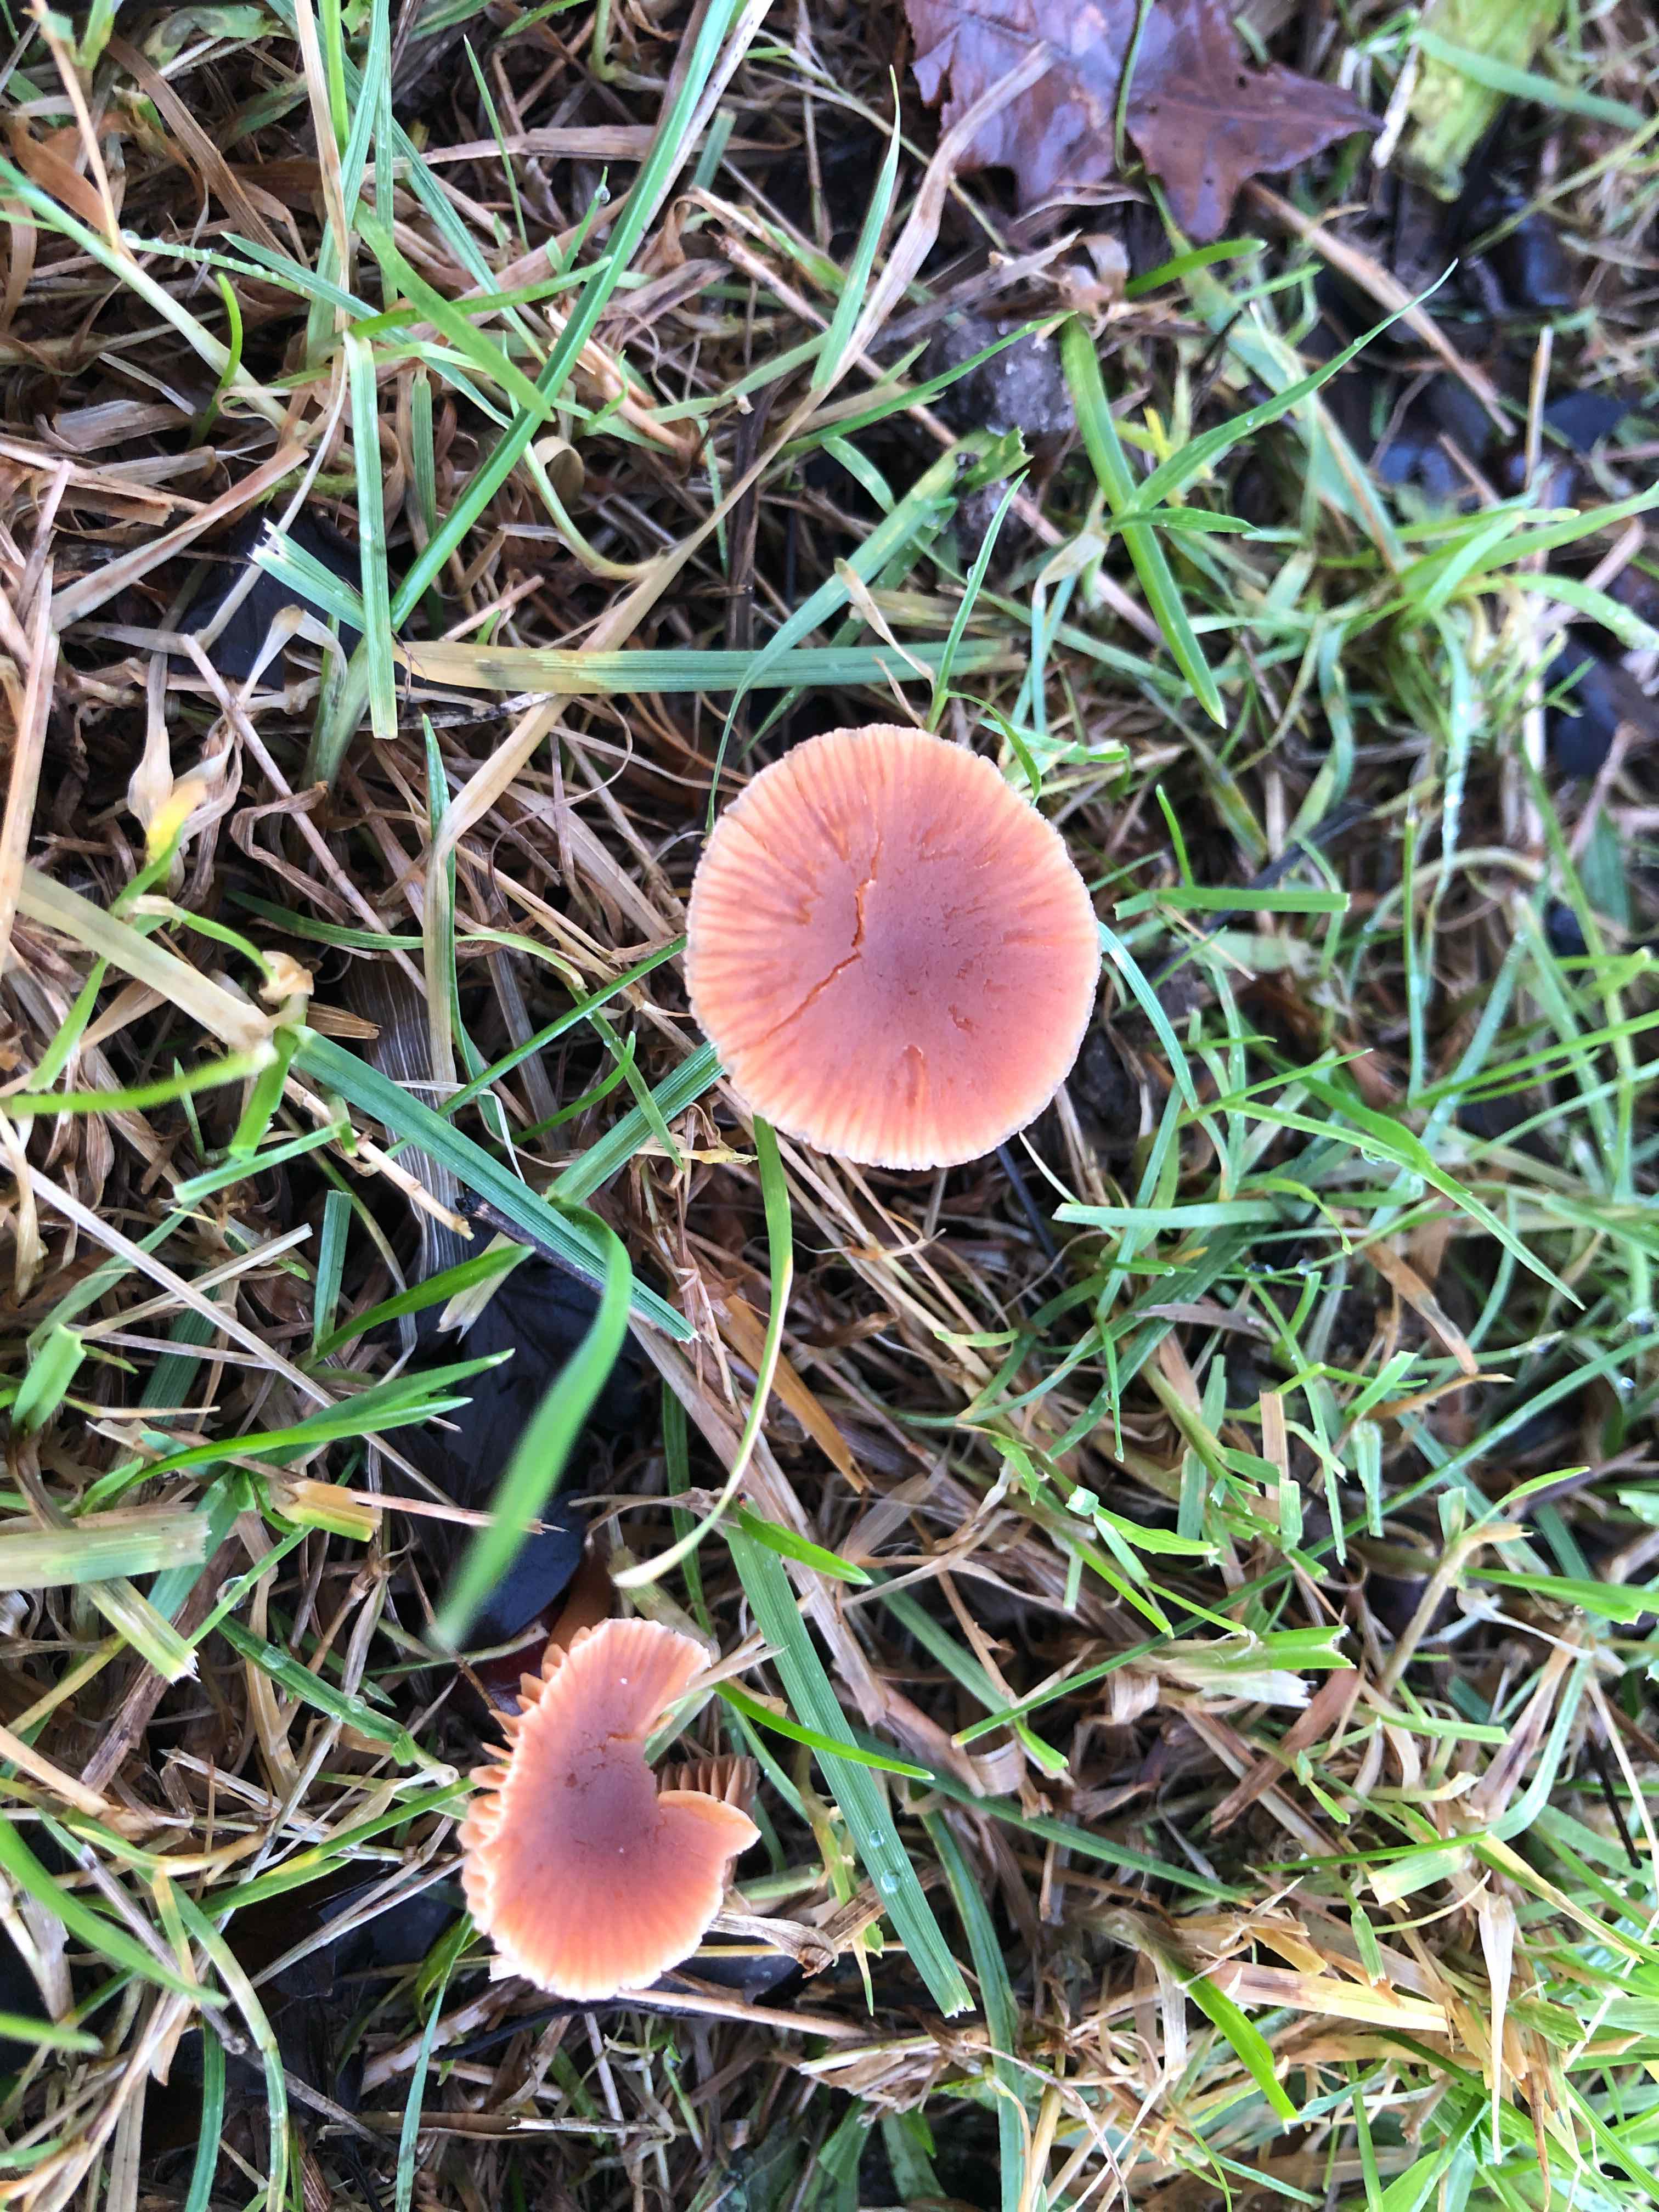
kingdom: Fungi
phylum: Basidiomycota
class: Agaricomycetes
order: Agaricales
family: Tubariaceae
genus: Tubaria
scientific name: Tubaria furfuracea
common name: kliddet fnughat
